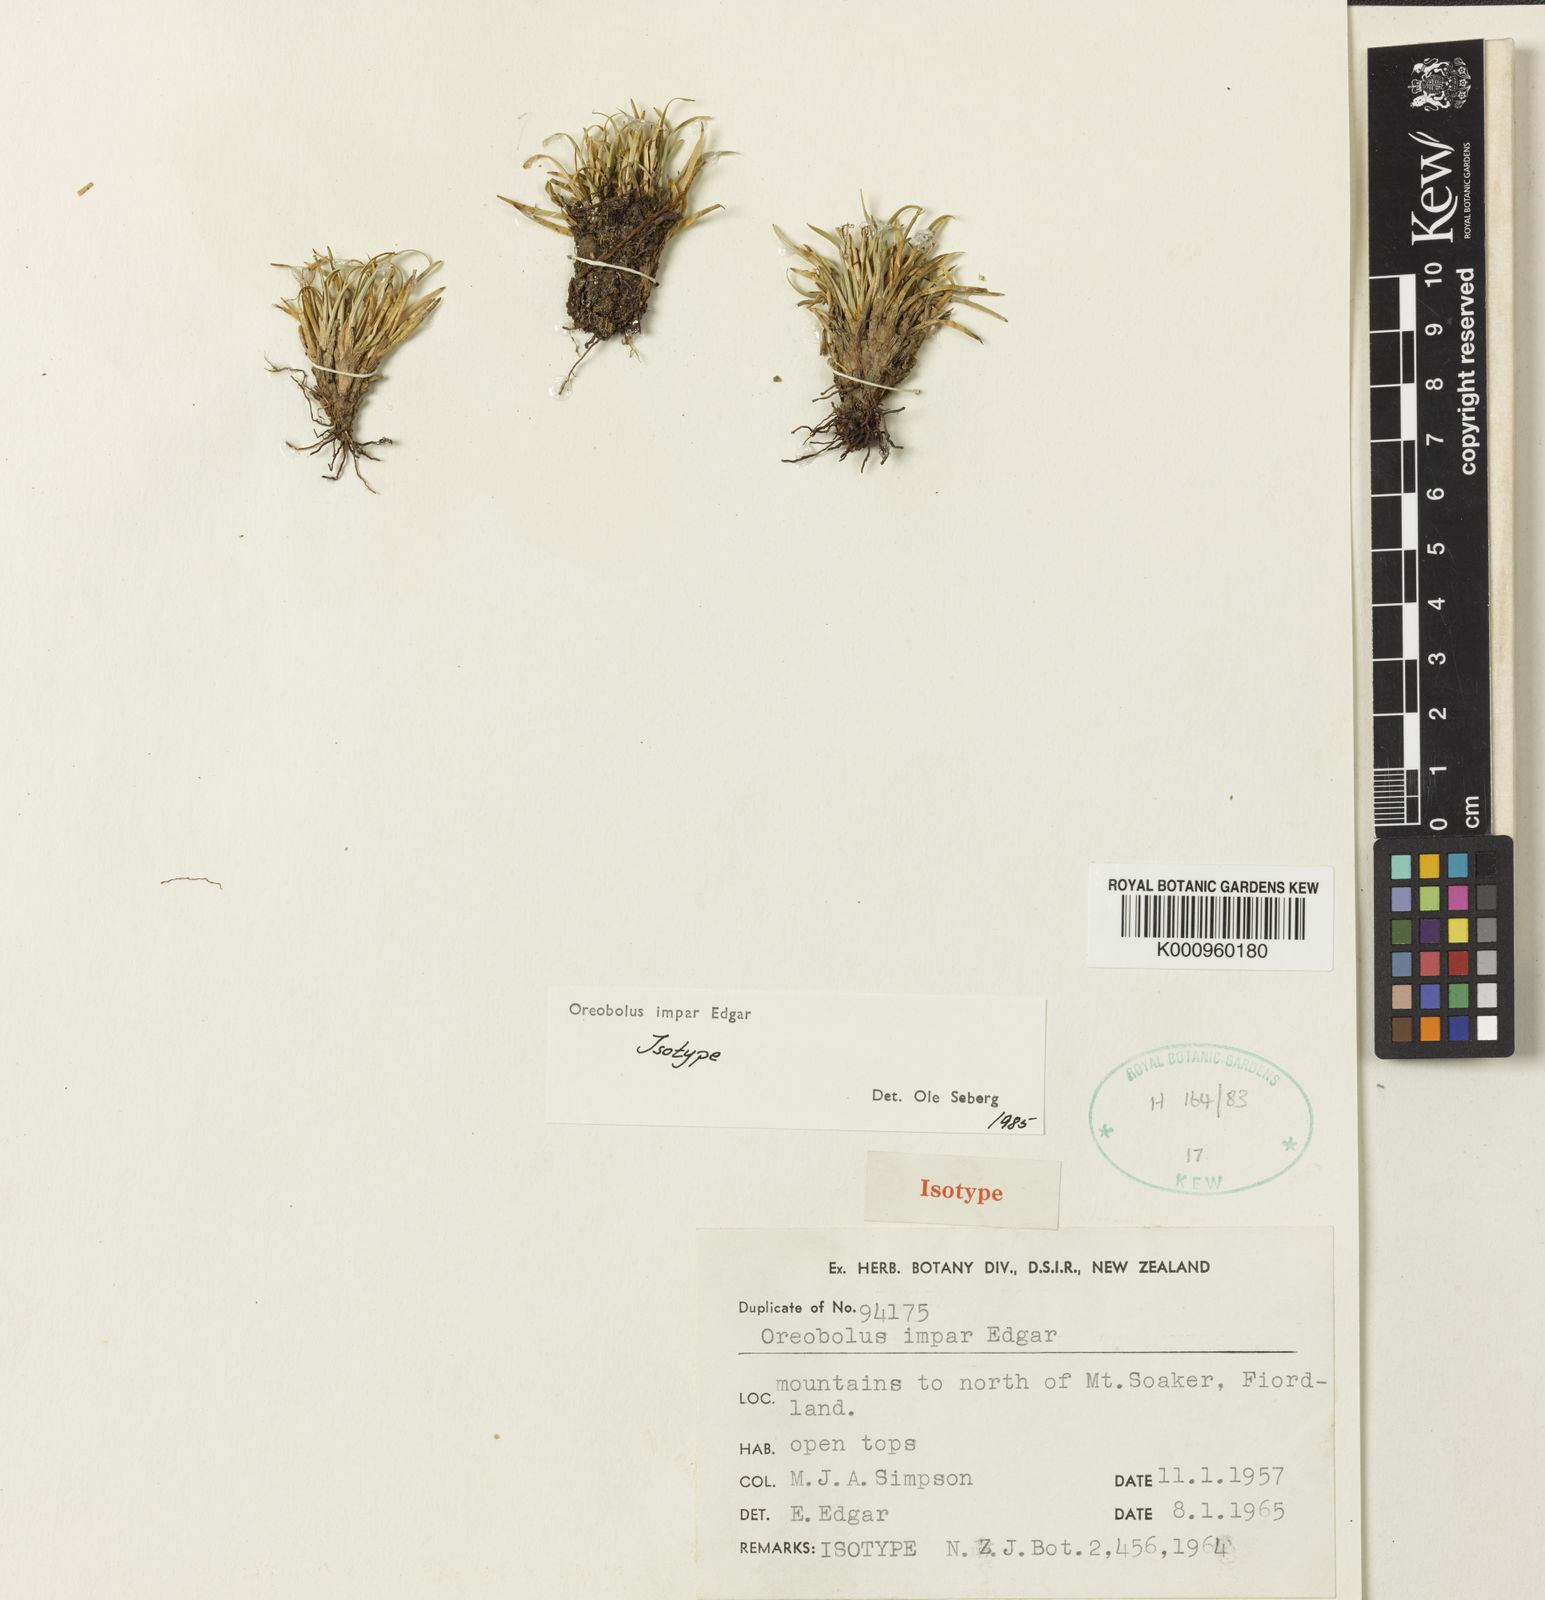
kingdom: Plantae
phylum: Tracheophyta
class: Liliopsida
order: Poales
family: Cyperaceae
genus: Oreobolus
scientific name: Oreobolus impar
